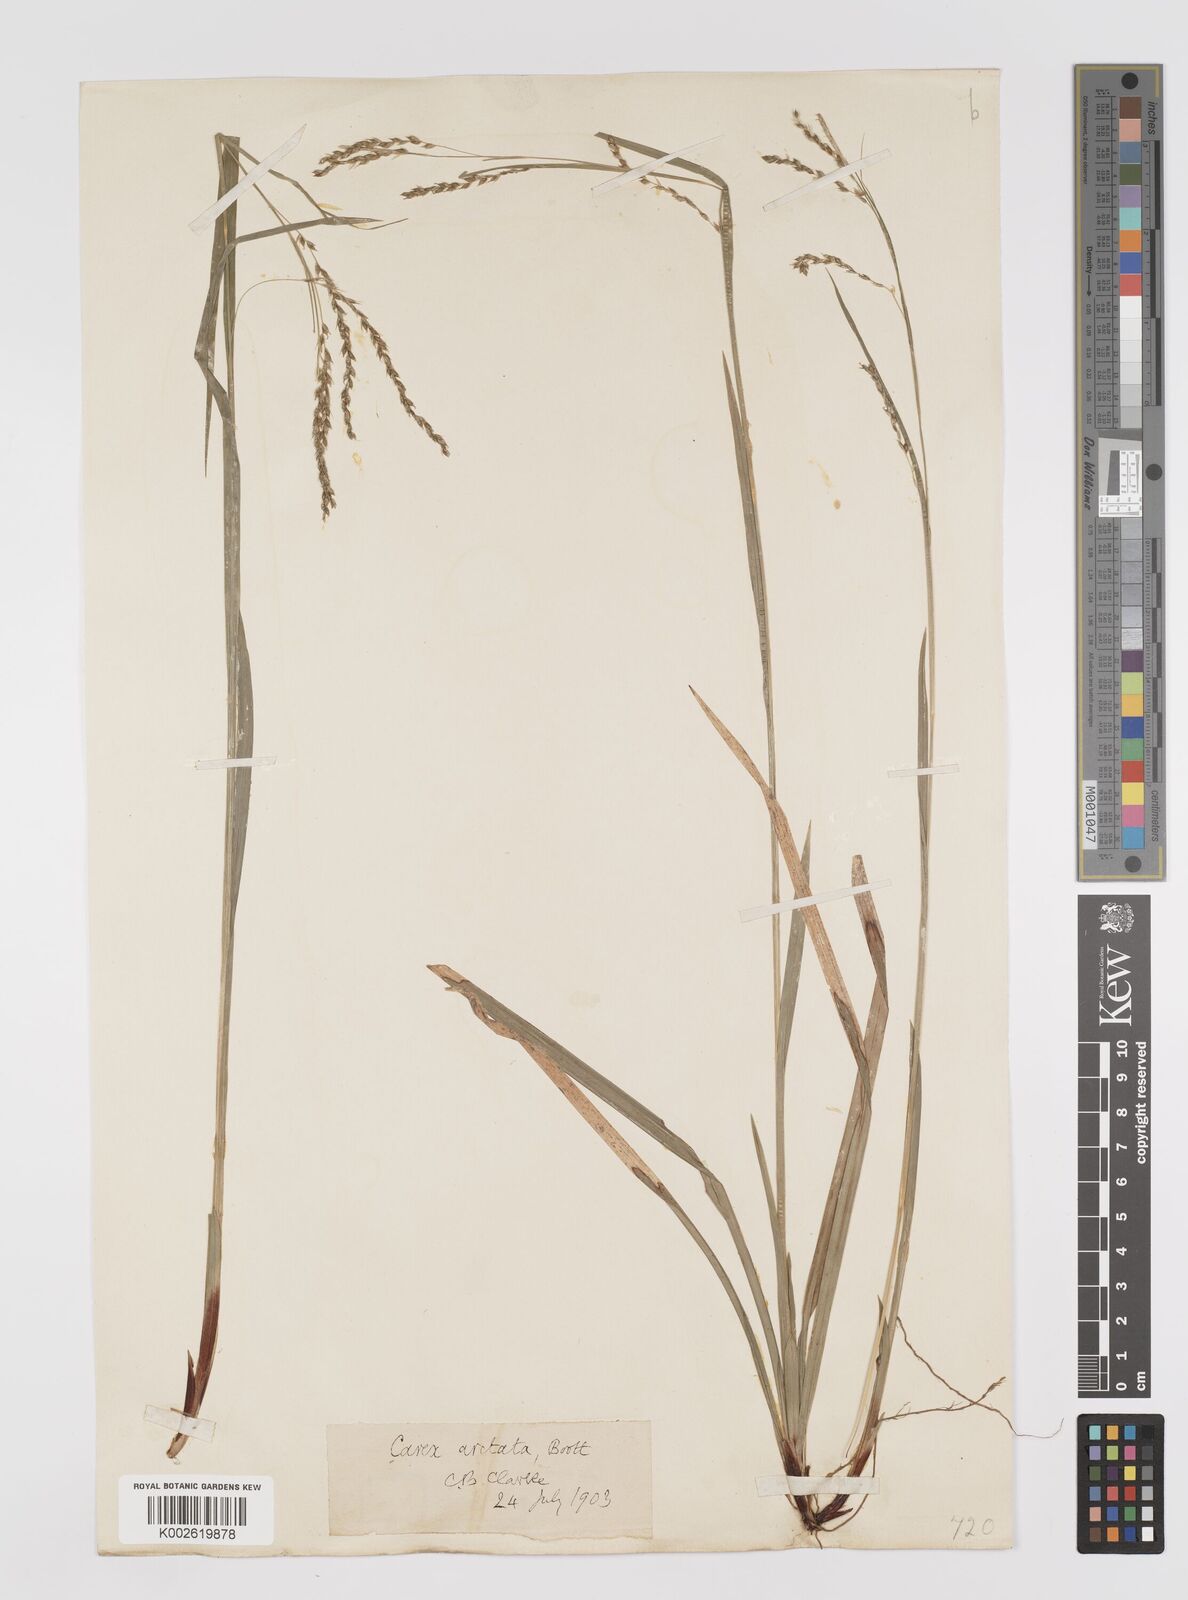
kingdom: Plantae
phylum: Tracheophyta
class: Liliopsida
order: Poales
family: Cyperaceae
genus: Carex
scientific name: Carex arctata
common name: Black sedge
